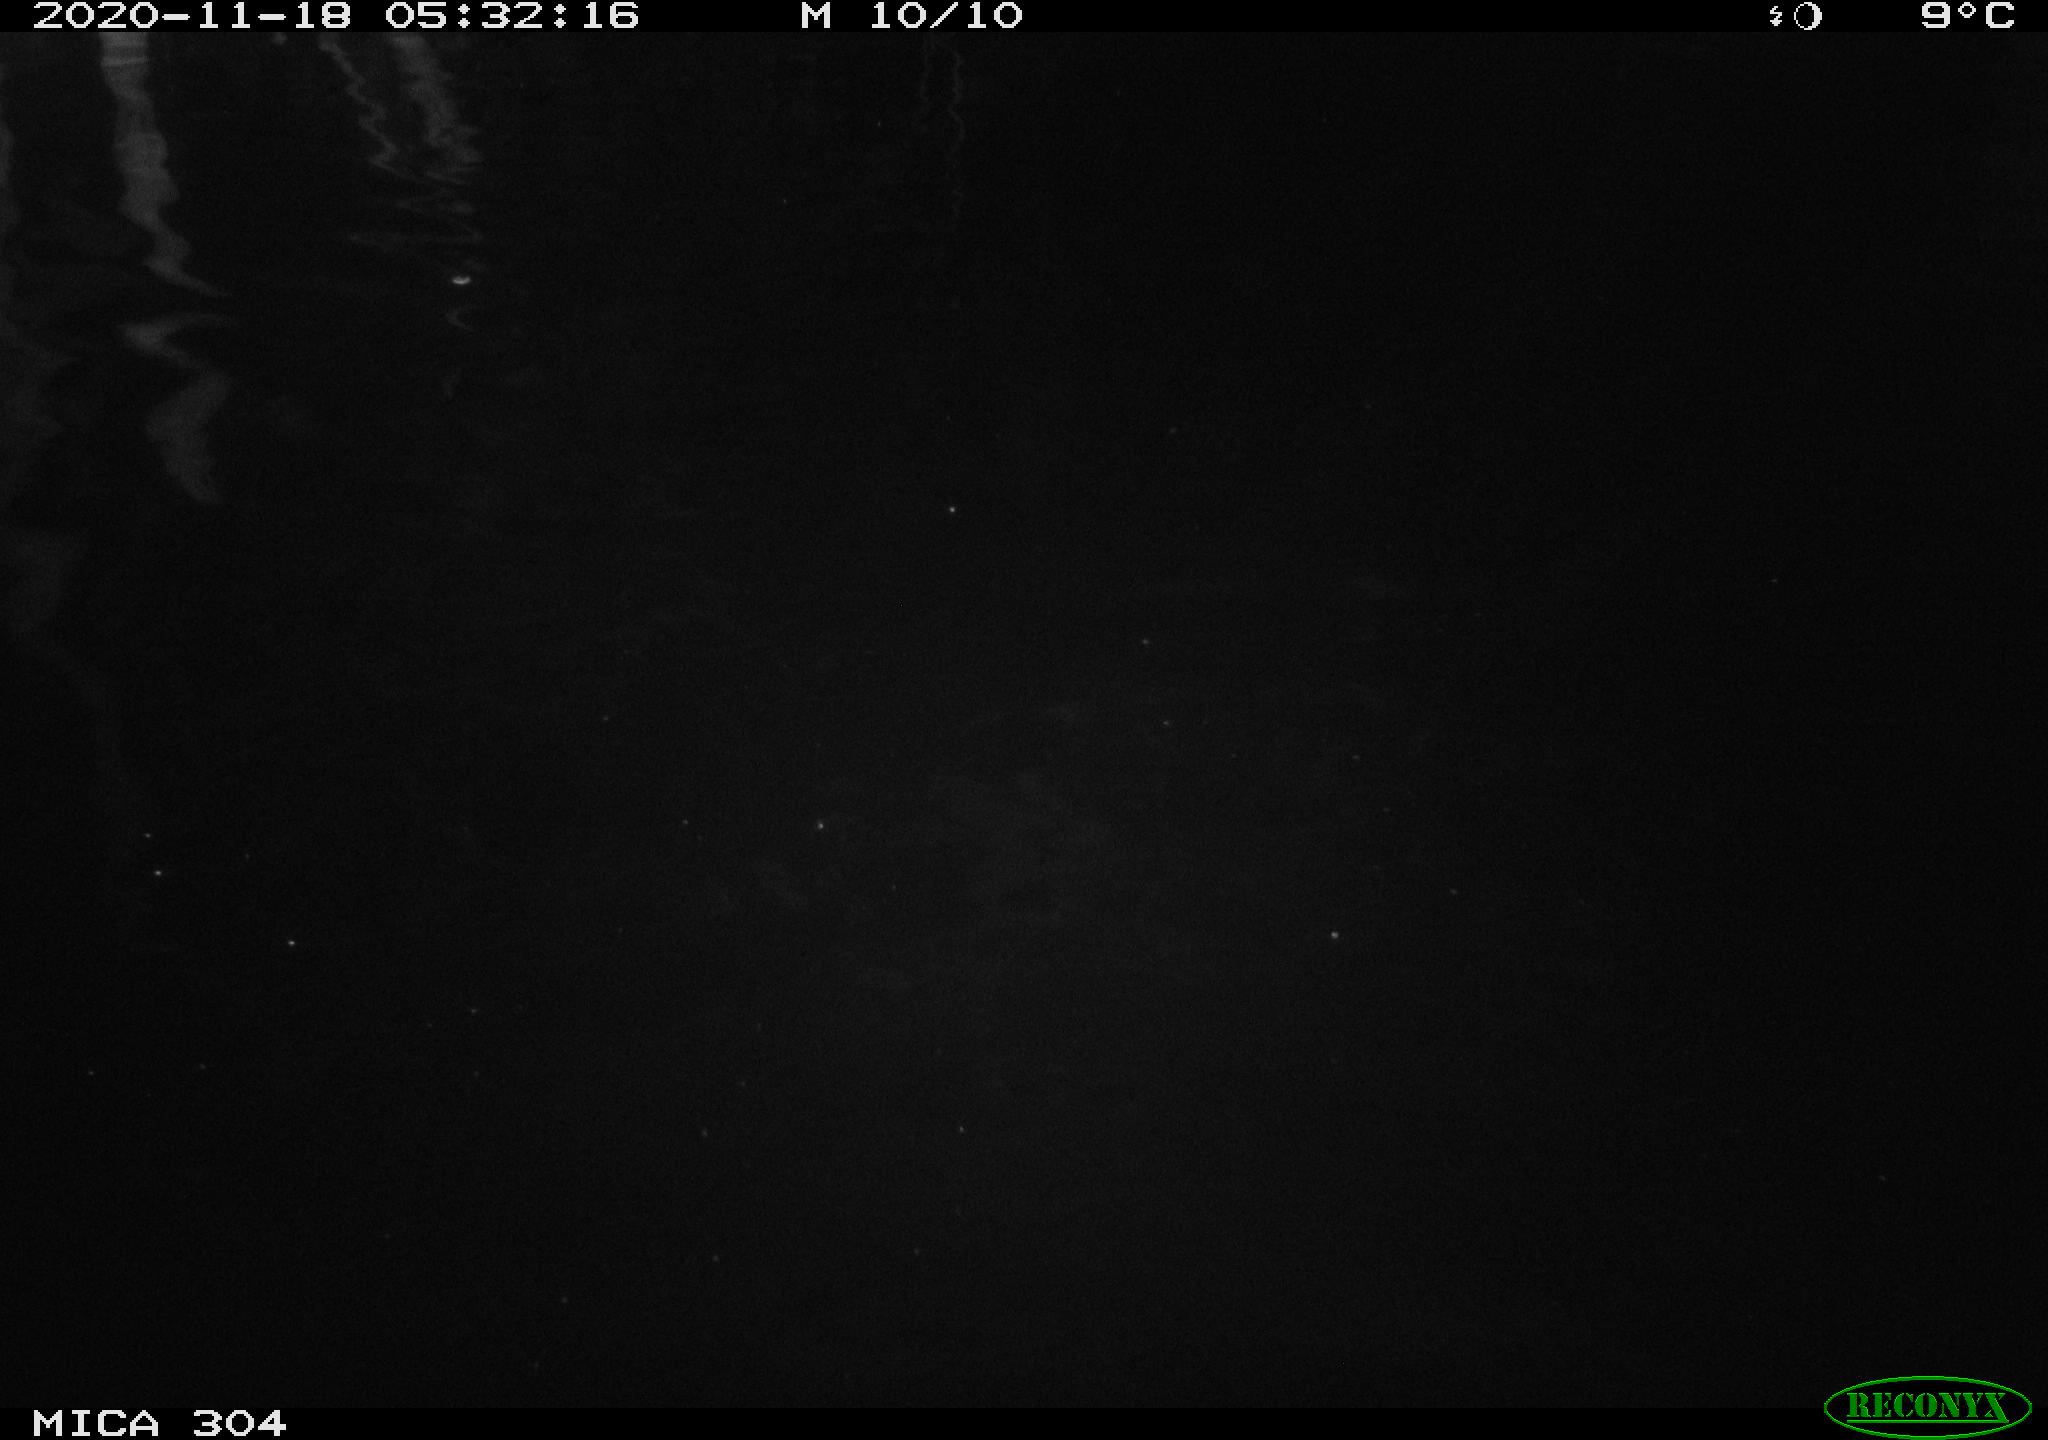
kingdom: Animalia
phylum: Chordata
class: Mammalia
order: Rodentia
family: Cricetidae
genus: Ondatra
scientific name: Ondatra zibethicus
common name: Muskrat
